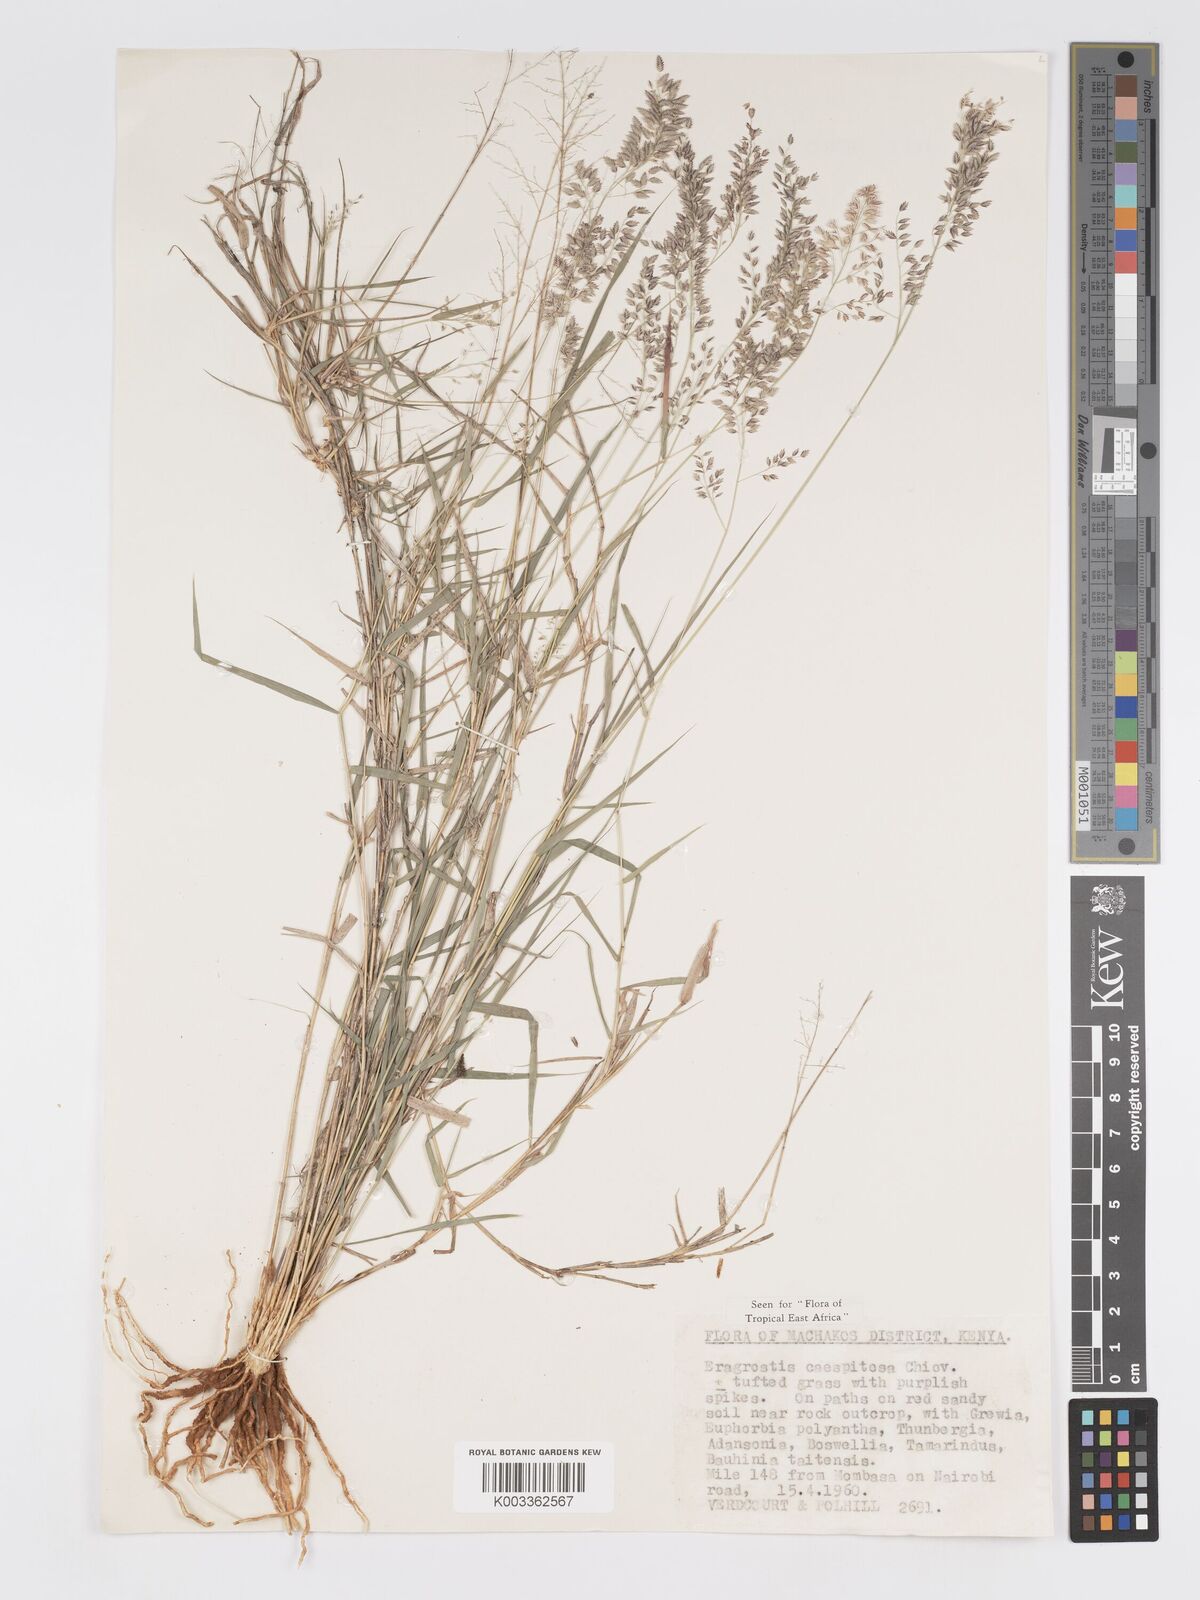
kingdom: Plantae
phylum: Tracheophyta
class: Liliopsida
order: Poales
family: Poaceae
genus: Eragrostis
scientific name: Eragrostis caespitosa
